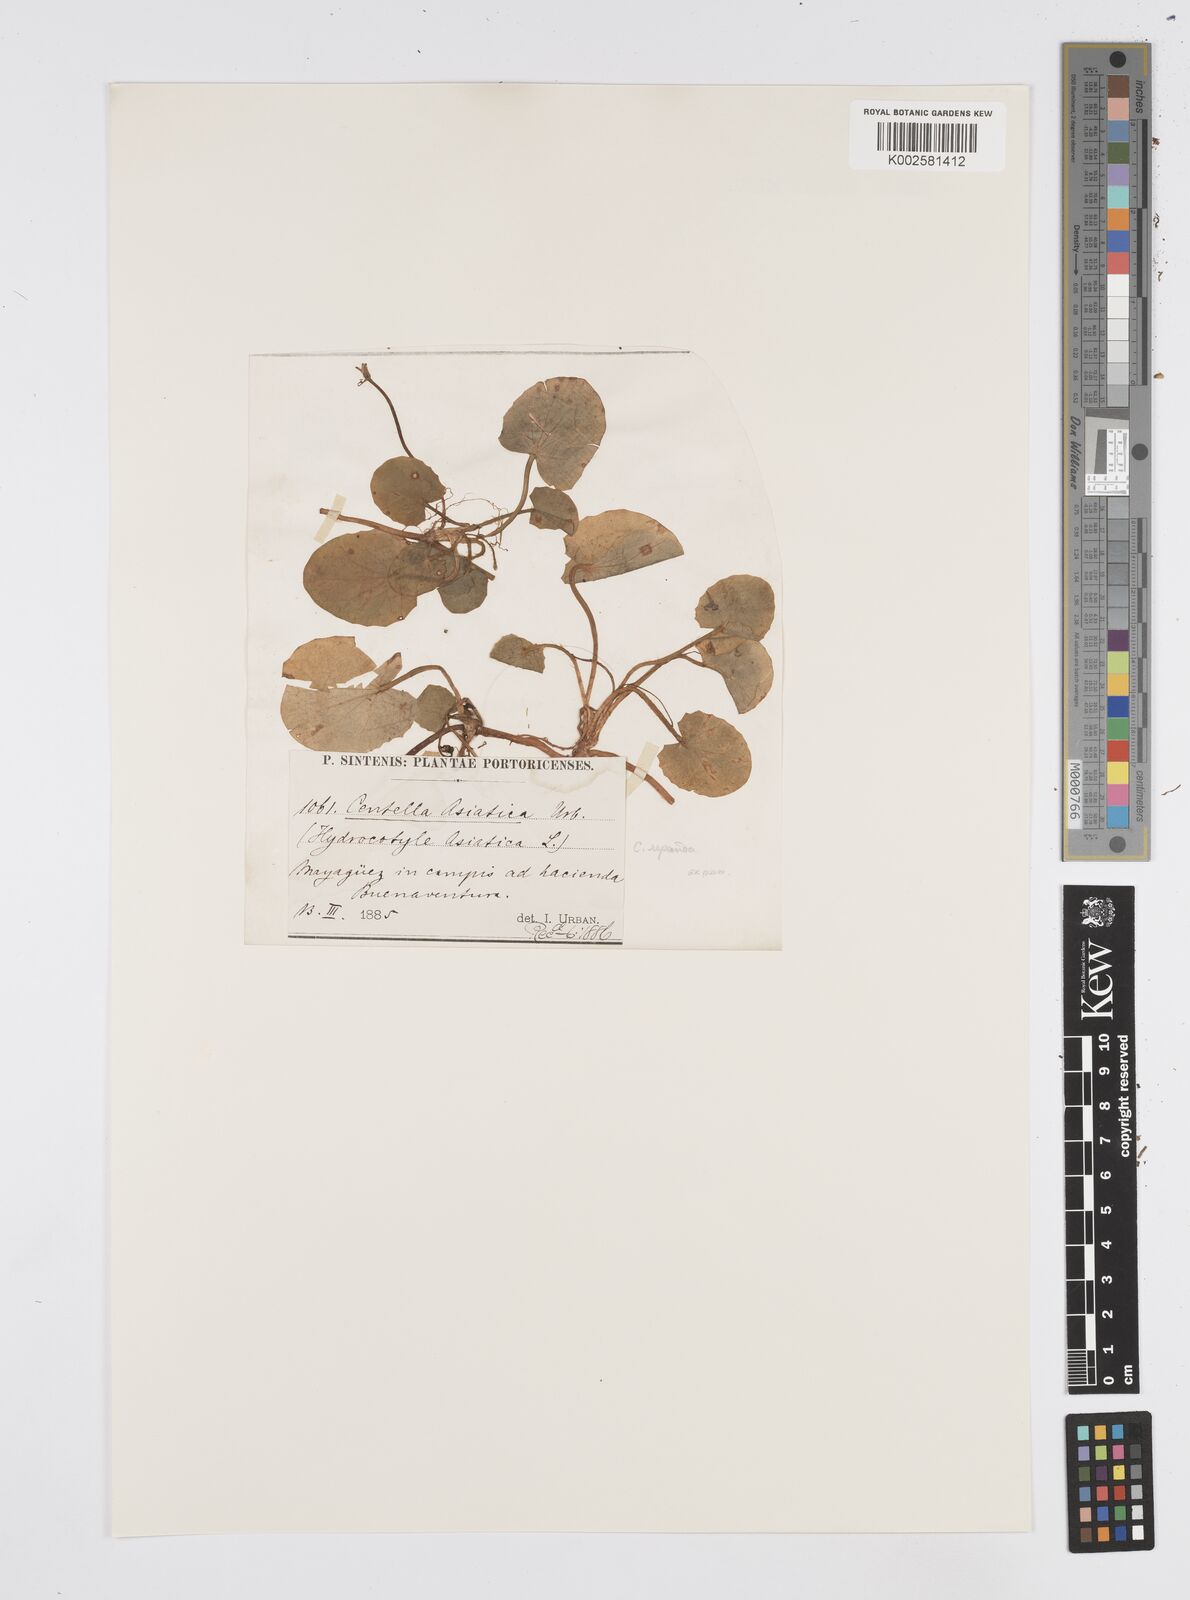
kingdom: Plantae
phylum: Tracheophyta
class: Magnoliopsida
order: Apiales
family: Apiaceae
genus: Centella
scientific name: Centella asiatica
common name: Spadeleaf
